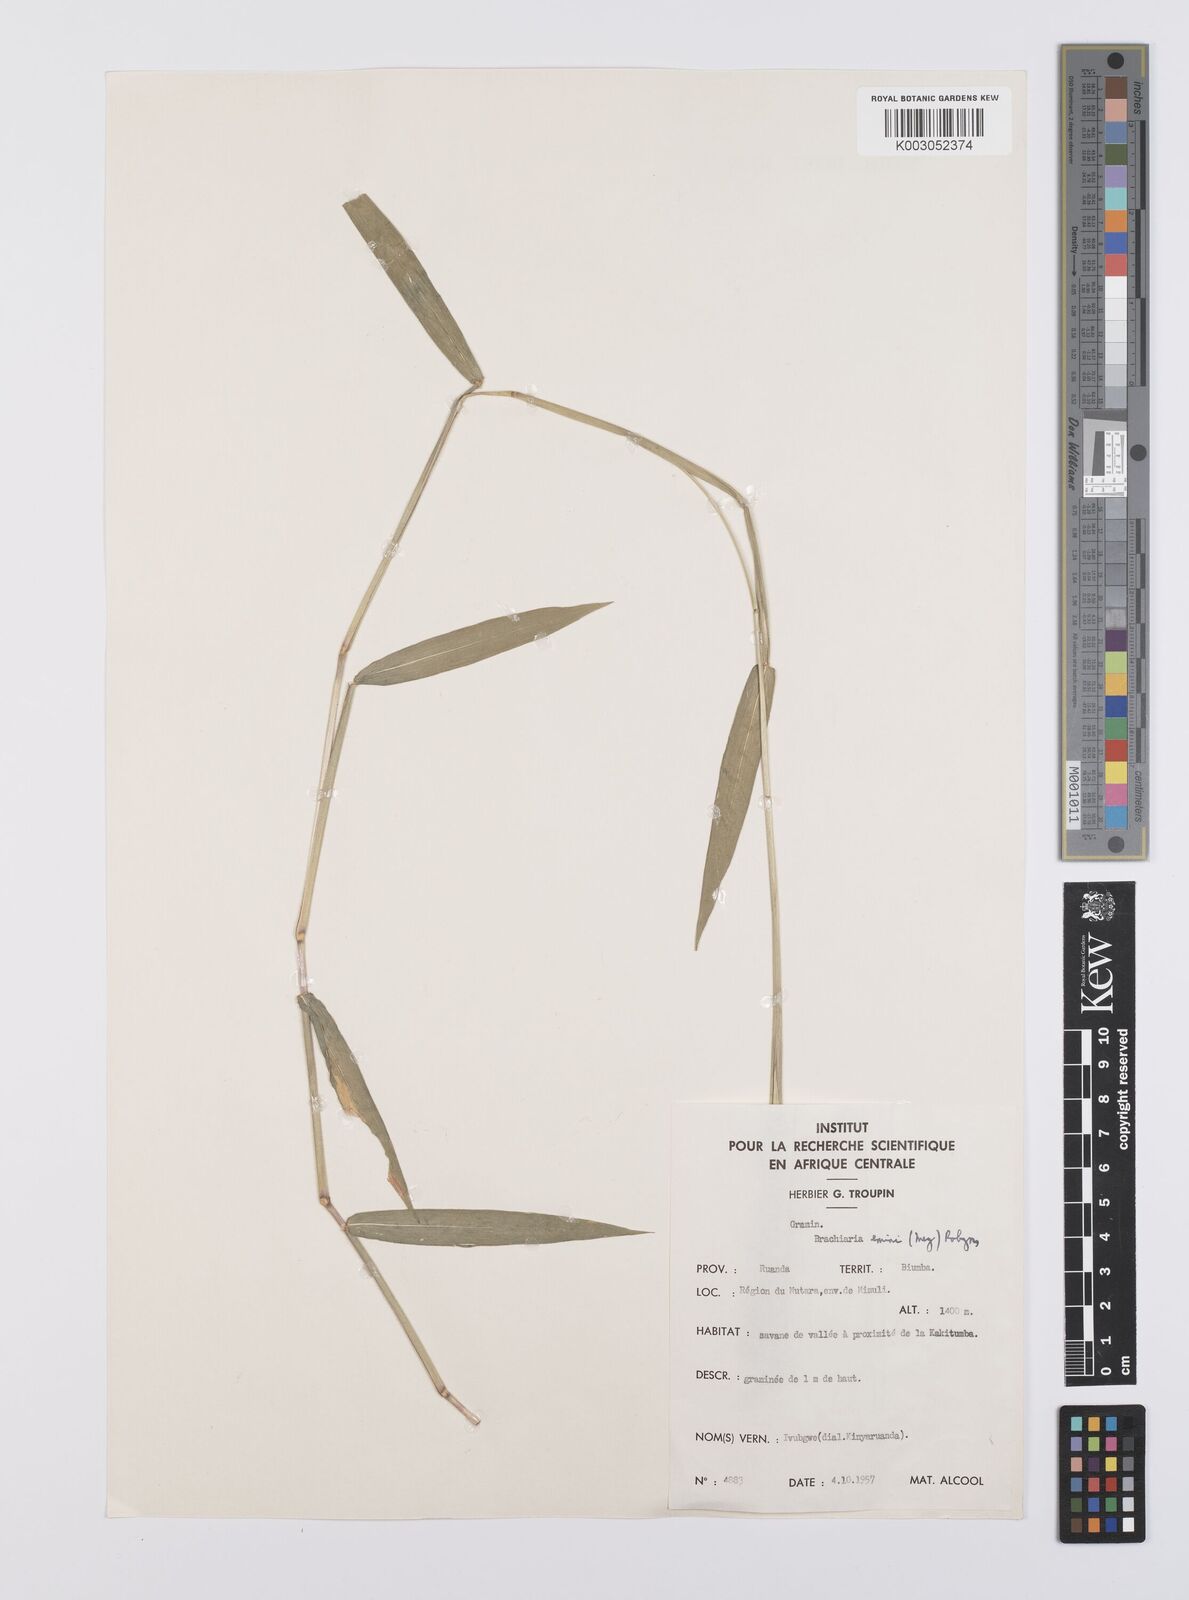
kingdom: Plantae
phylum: Tracheophyta
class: Liliopsida
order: Poales
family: Poaceae
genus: Urochloa
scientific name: Urochloa eminii
